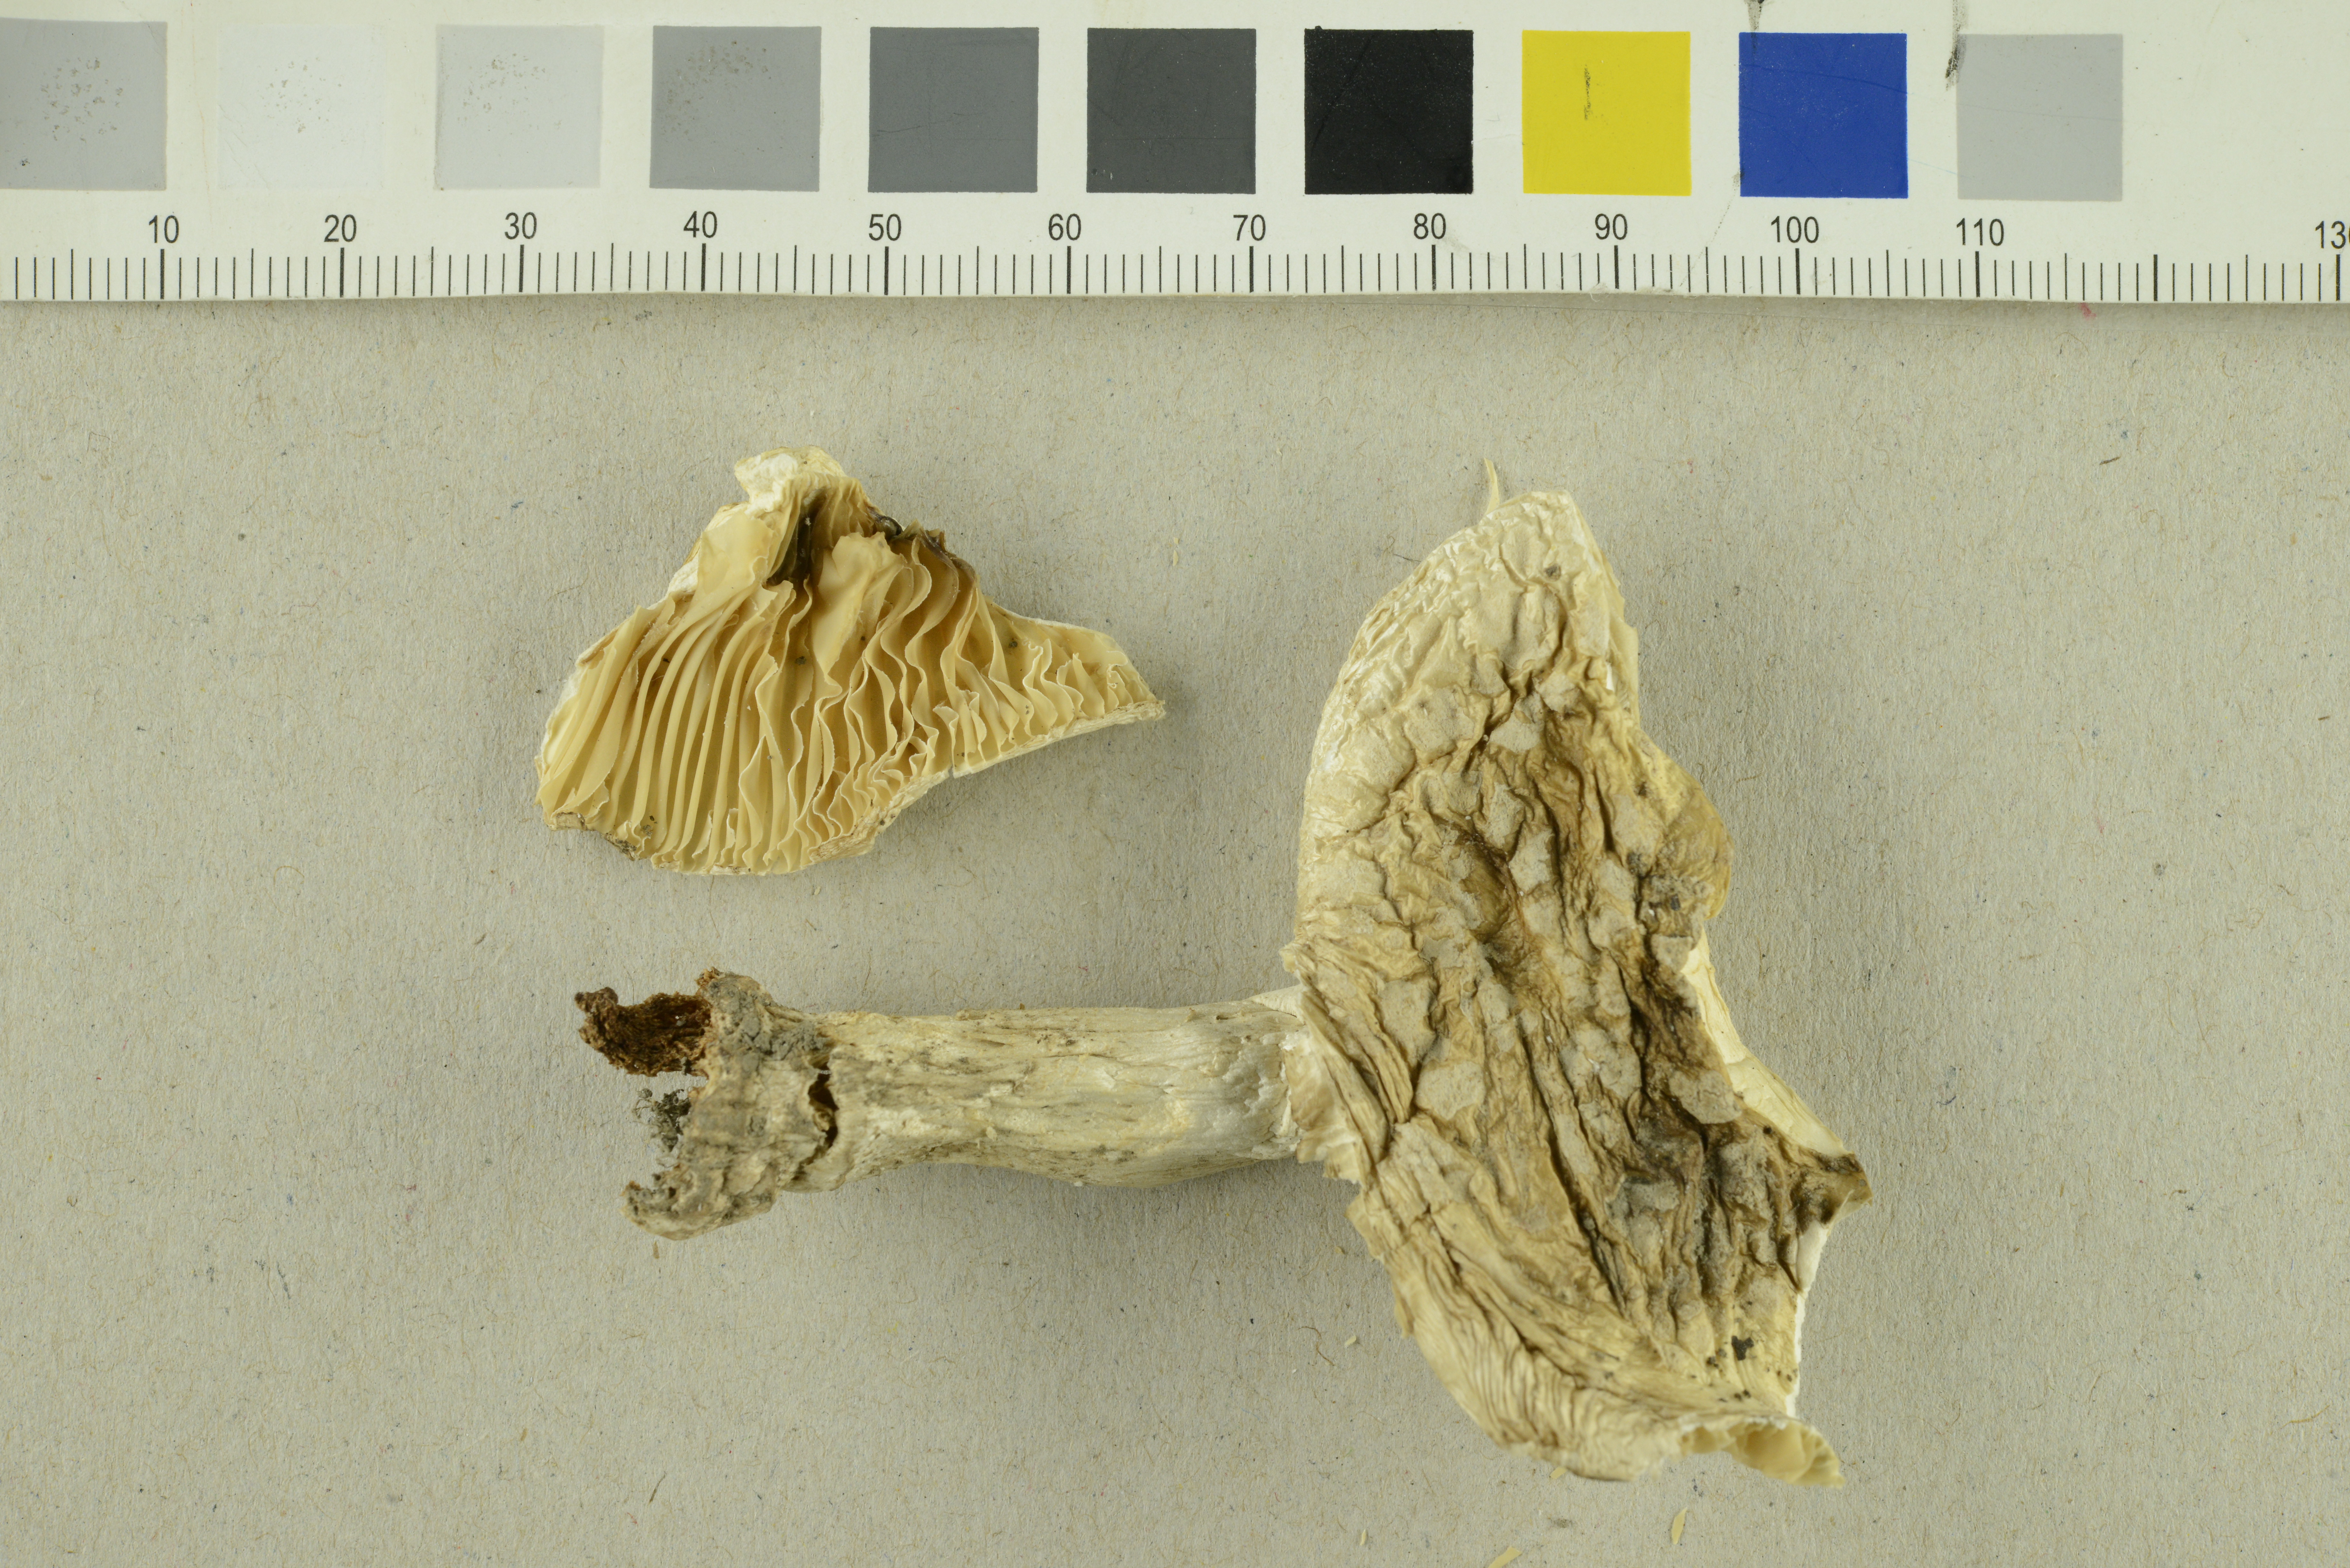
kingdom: Fungi
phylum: Basidiomycota
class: Agaricomycetes
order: Agaricales
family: Amanitaceae
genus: Amanita
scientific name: Amanita rubescens
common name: Blusher
